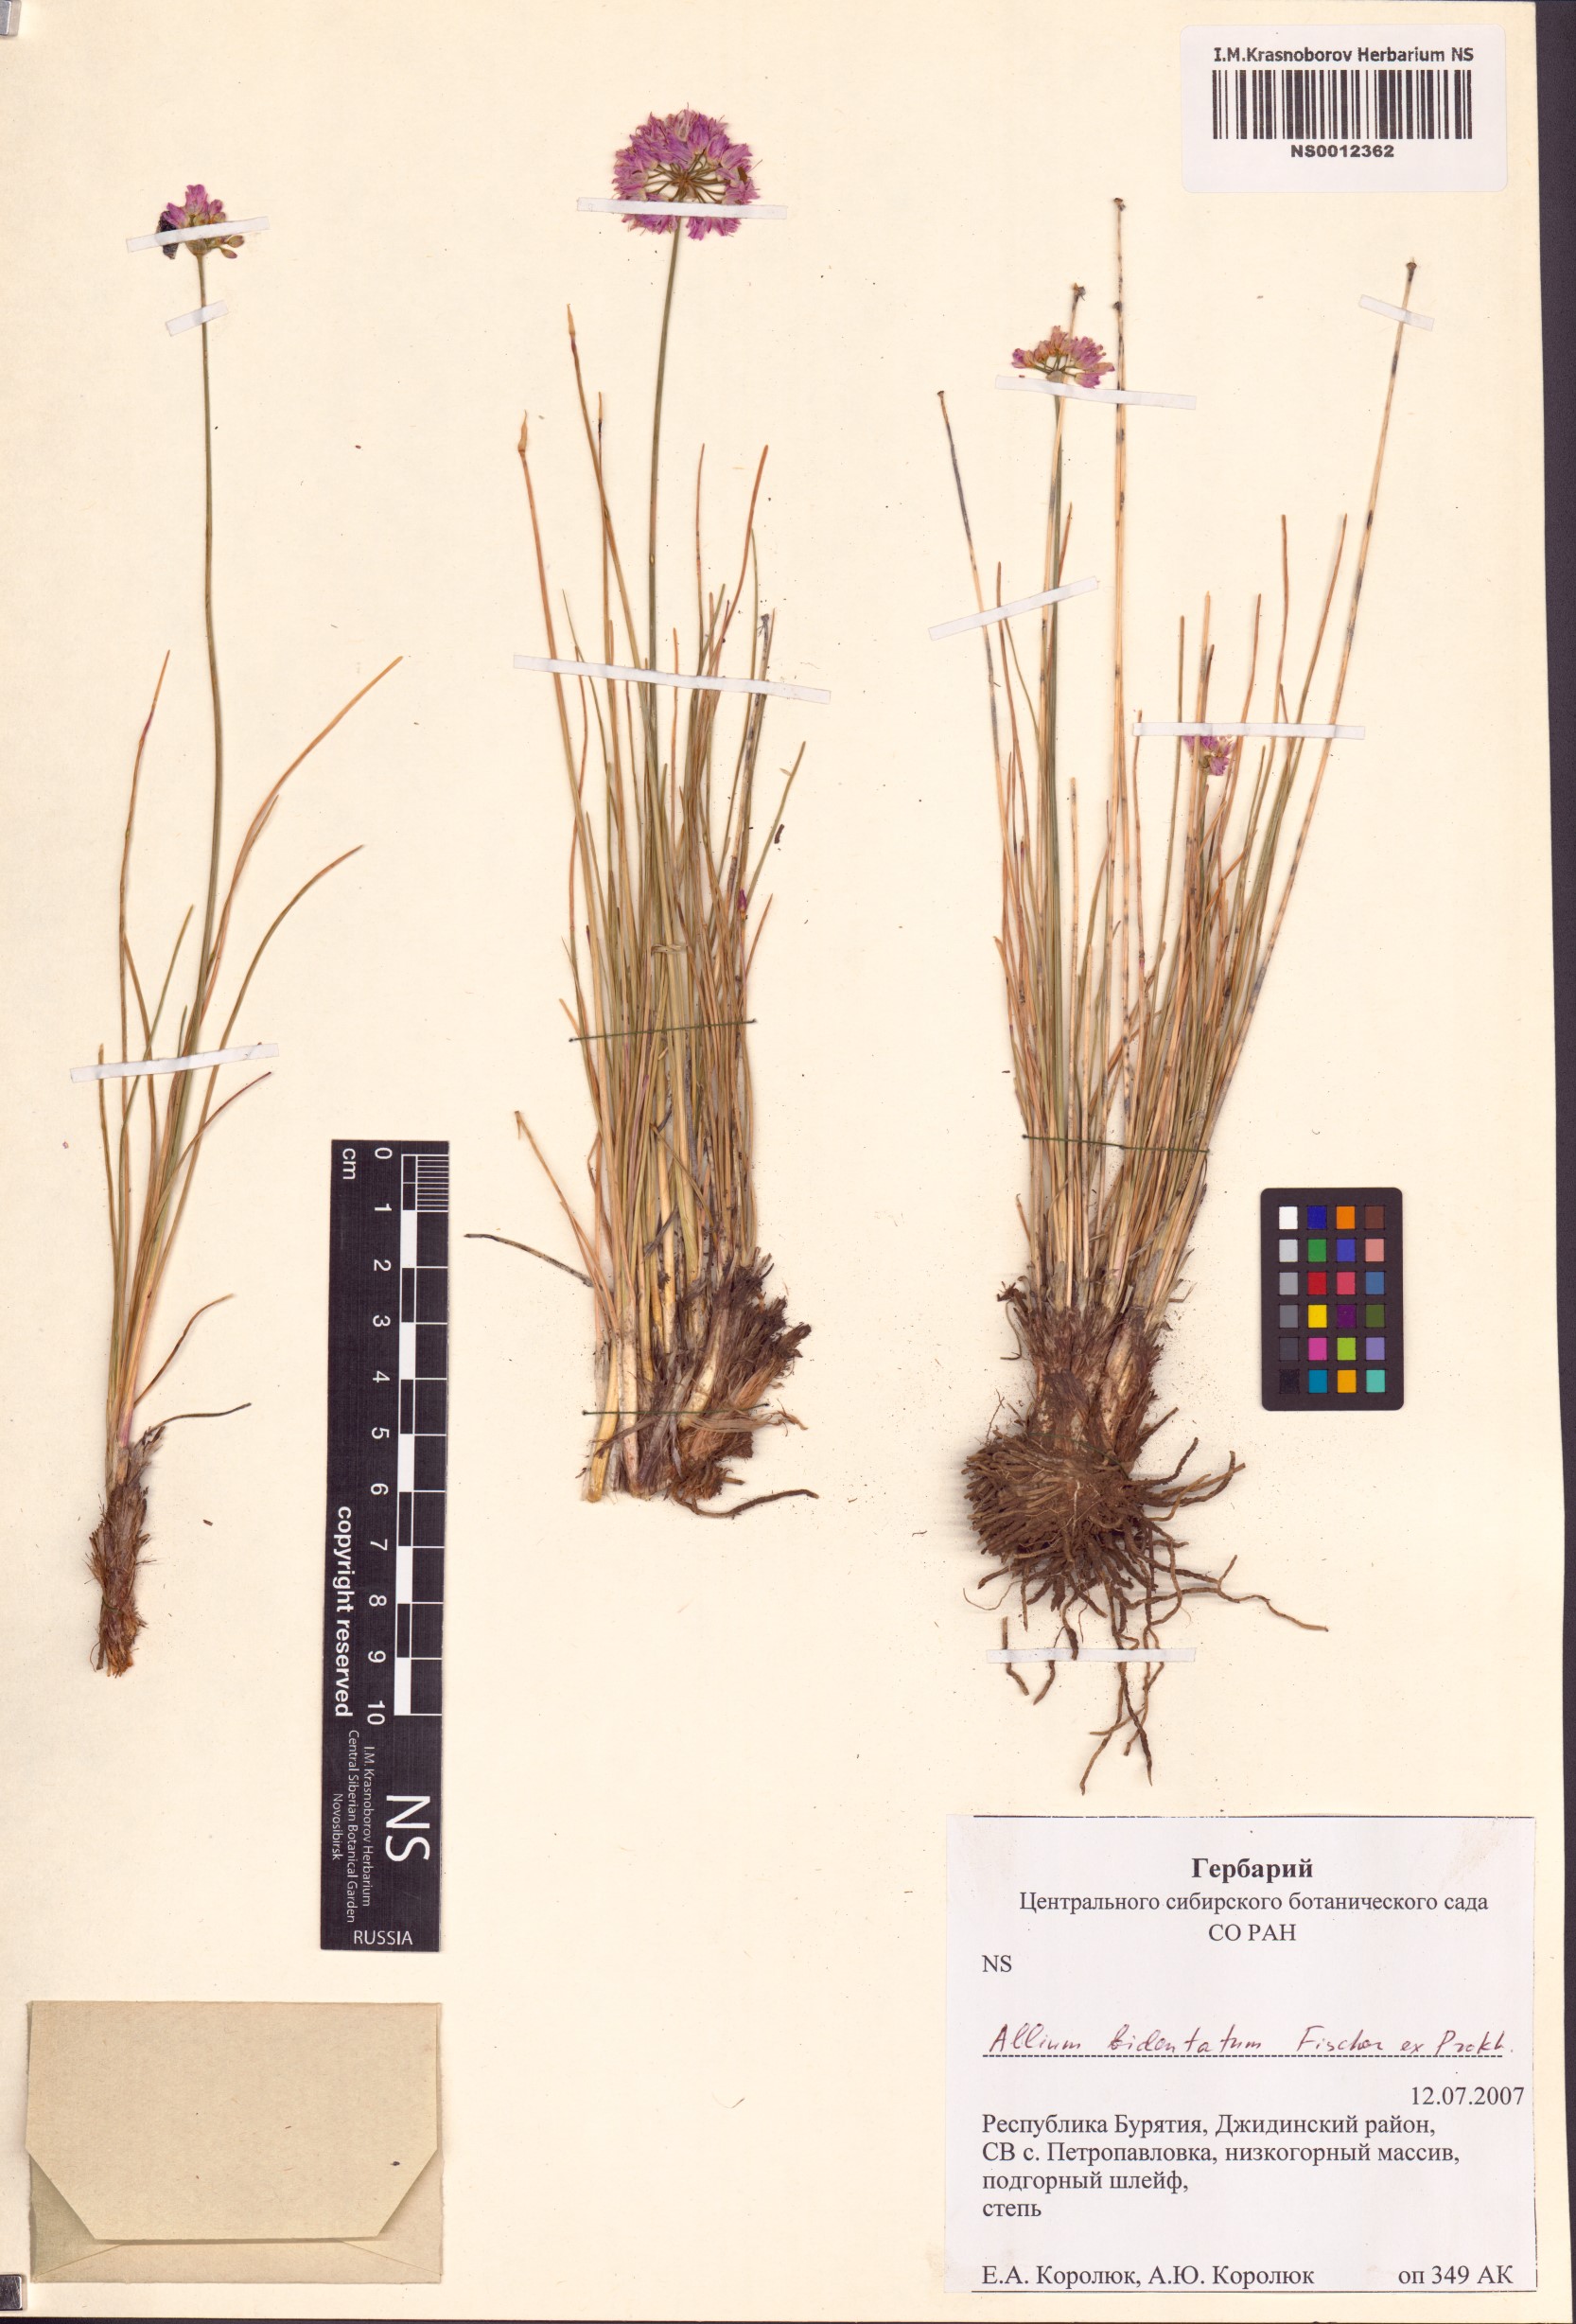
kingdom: Plantae
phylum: Tracheophyta
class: Liliopsida
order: Asparagales
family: Amaryllidaceae
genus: Allium
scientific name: Allium bidentatum
